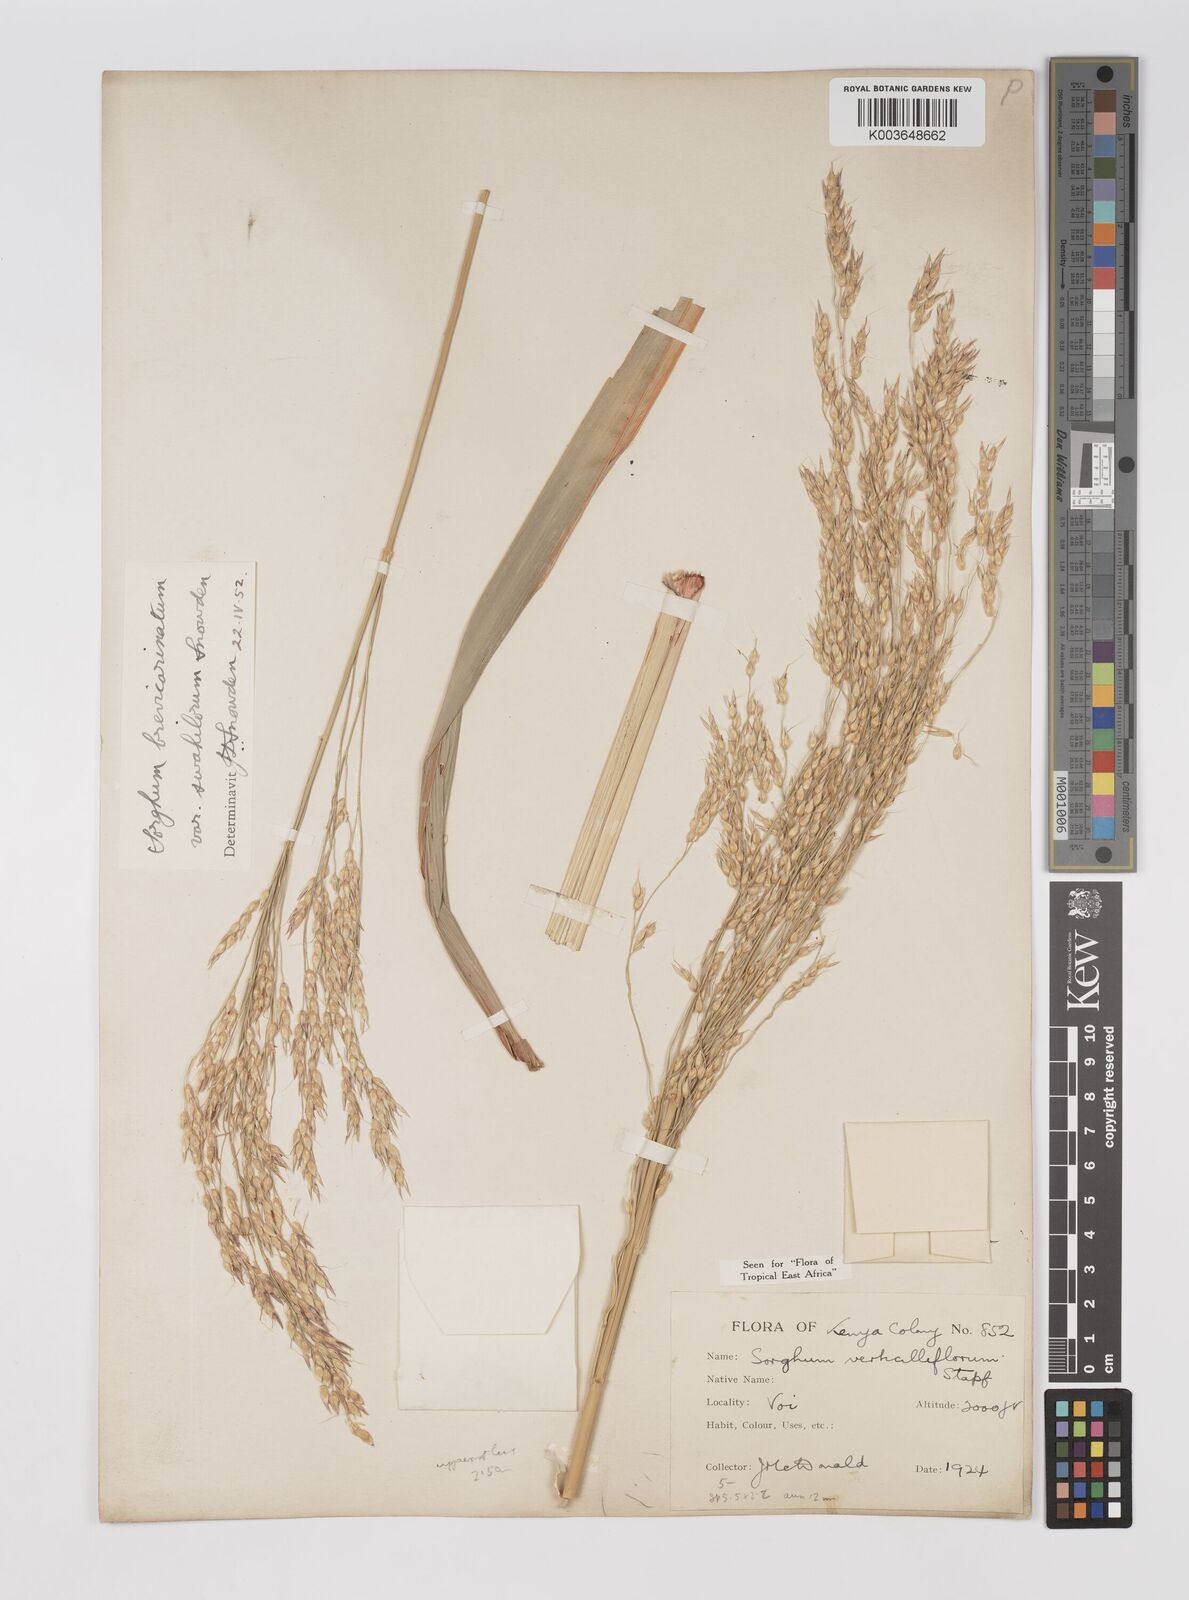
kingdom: Plantae
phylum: Tracheophyta
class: Liliopsida
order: Poales
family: Poaceae
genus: Sorghum
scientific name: Sorghum arundinaceum
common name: Sorghum
